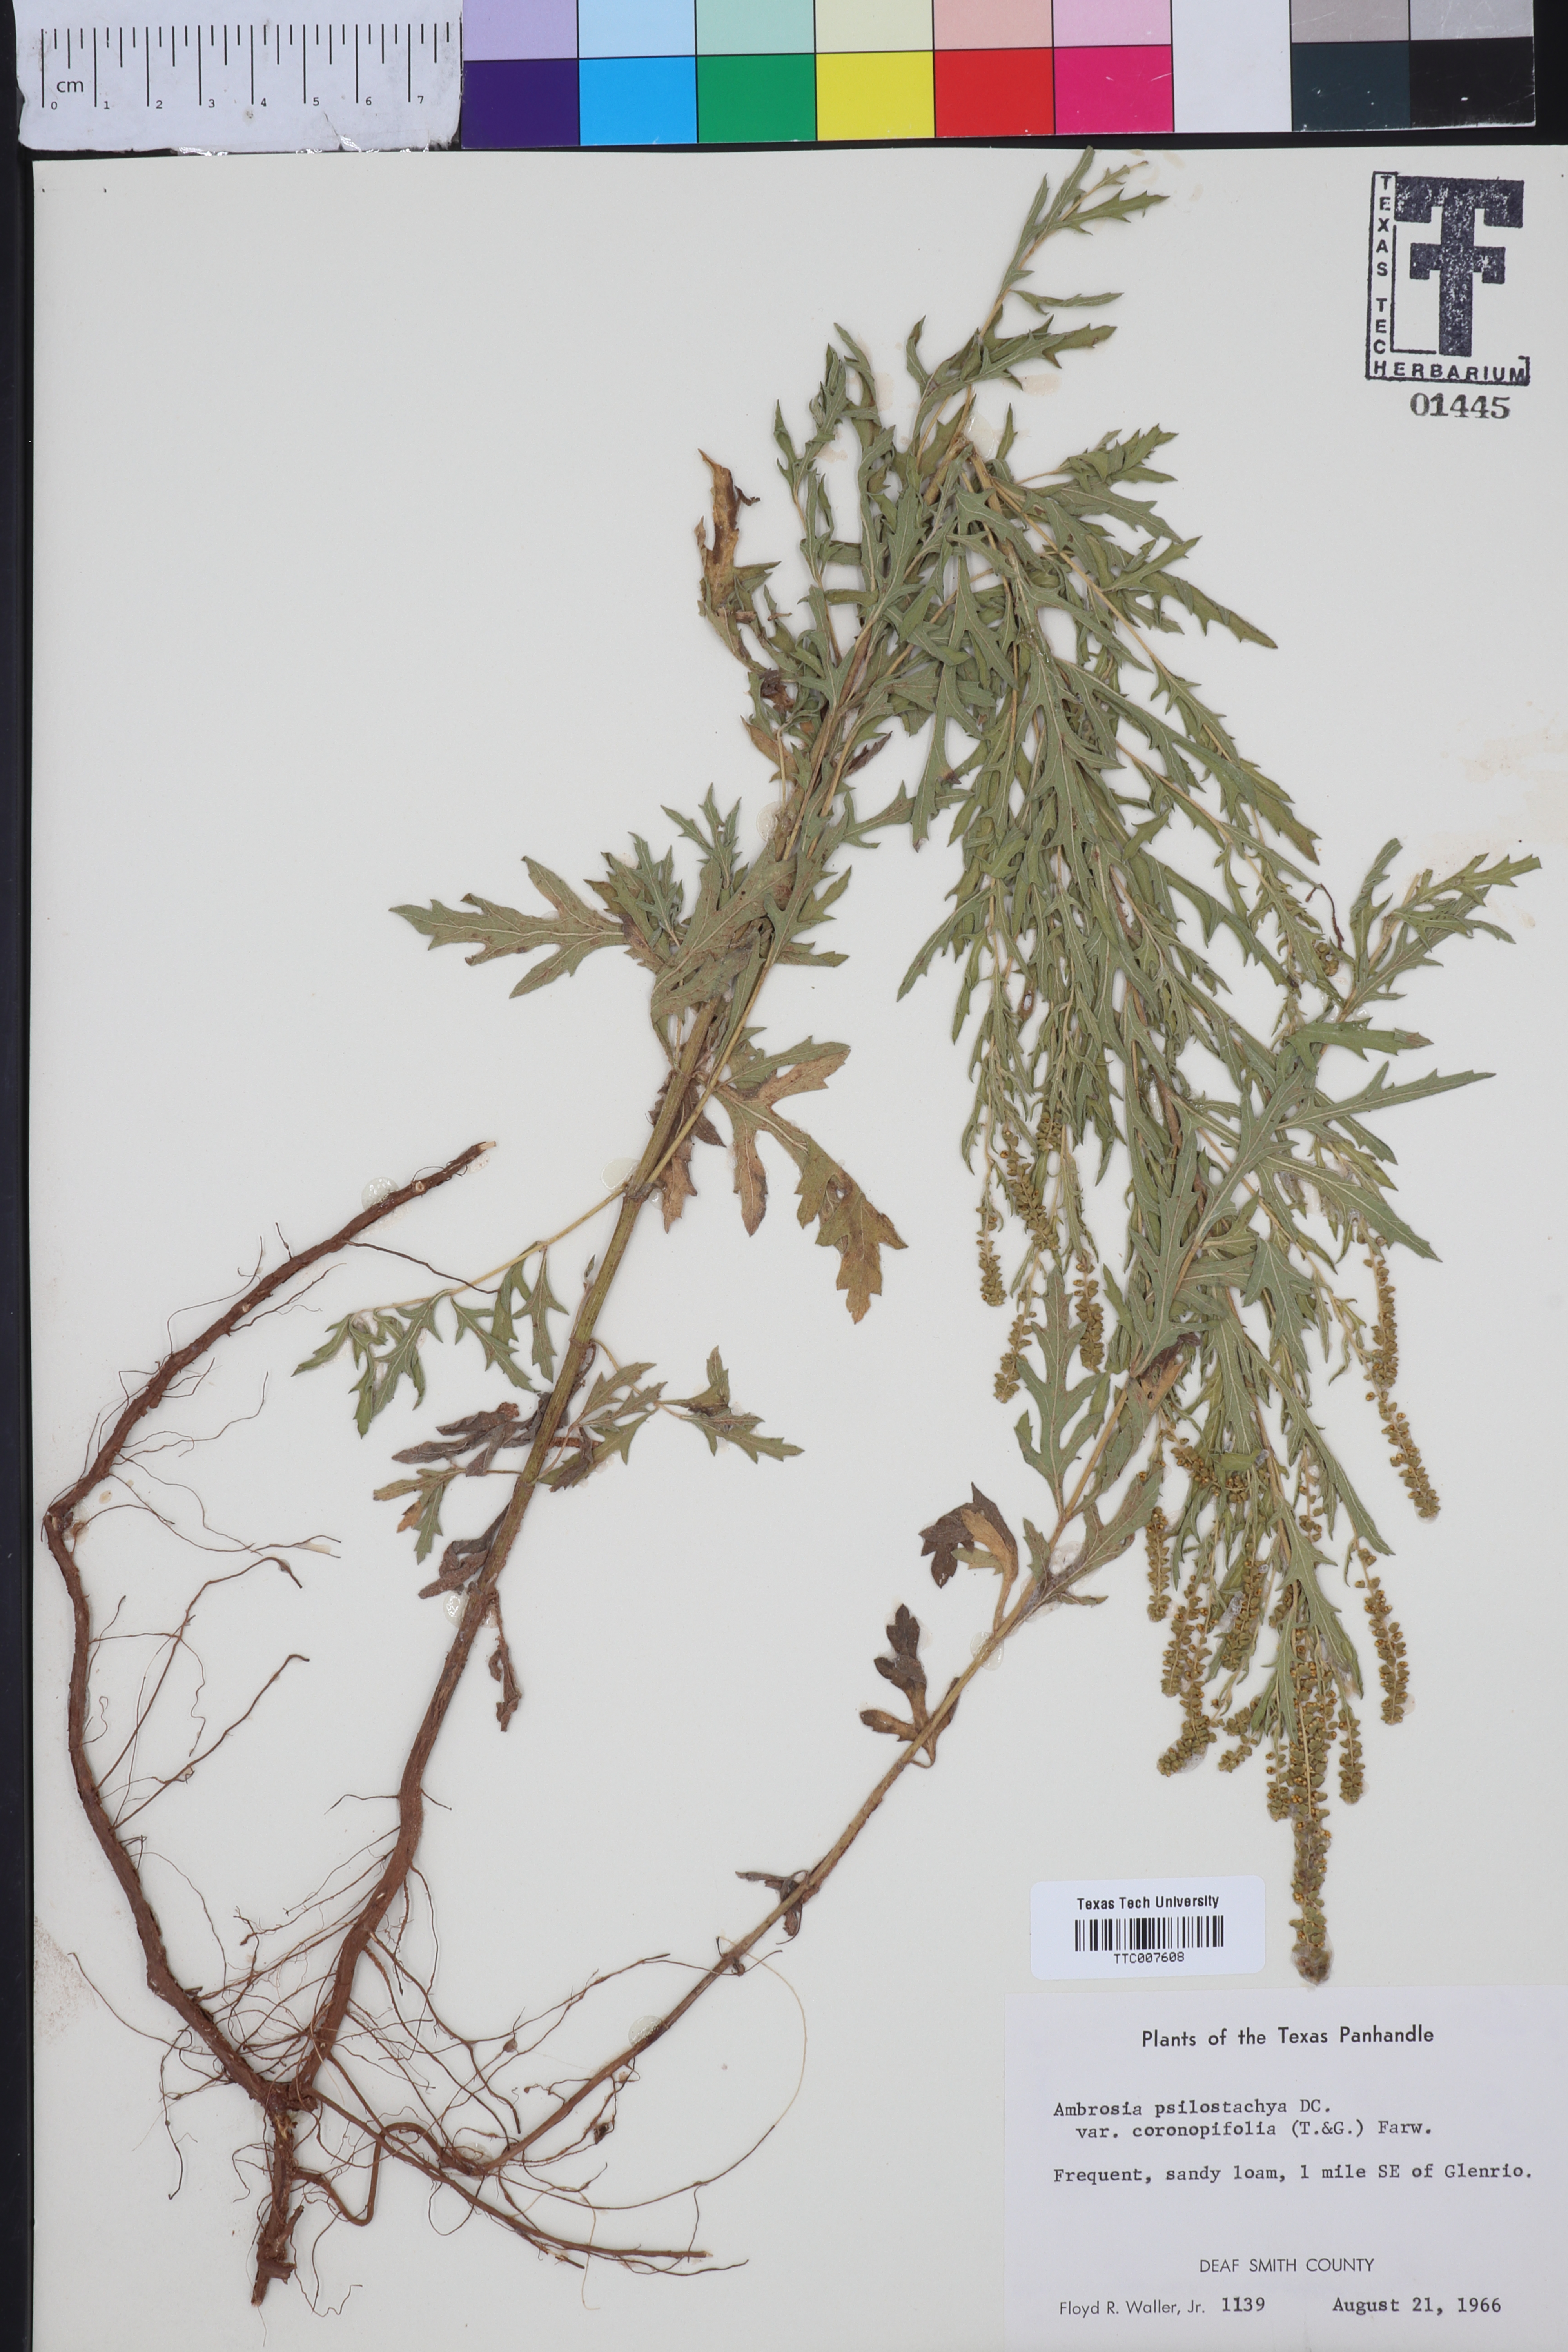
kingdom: Plantae
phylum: Tracheophyta
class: Magnoliopsida
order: Asterales
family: Asteraceae
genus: Ambrosia
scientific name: Ambrosia psilostachya
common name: Perennial ragweed
